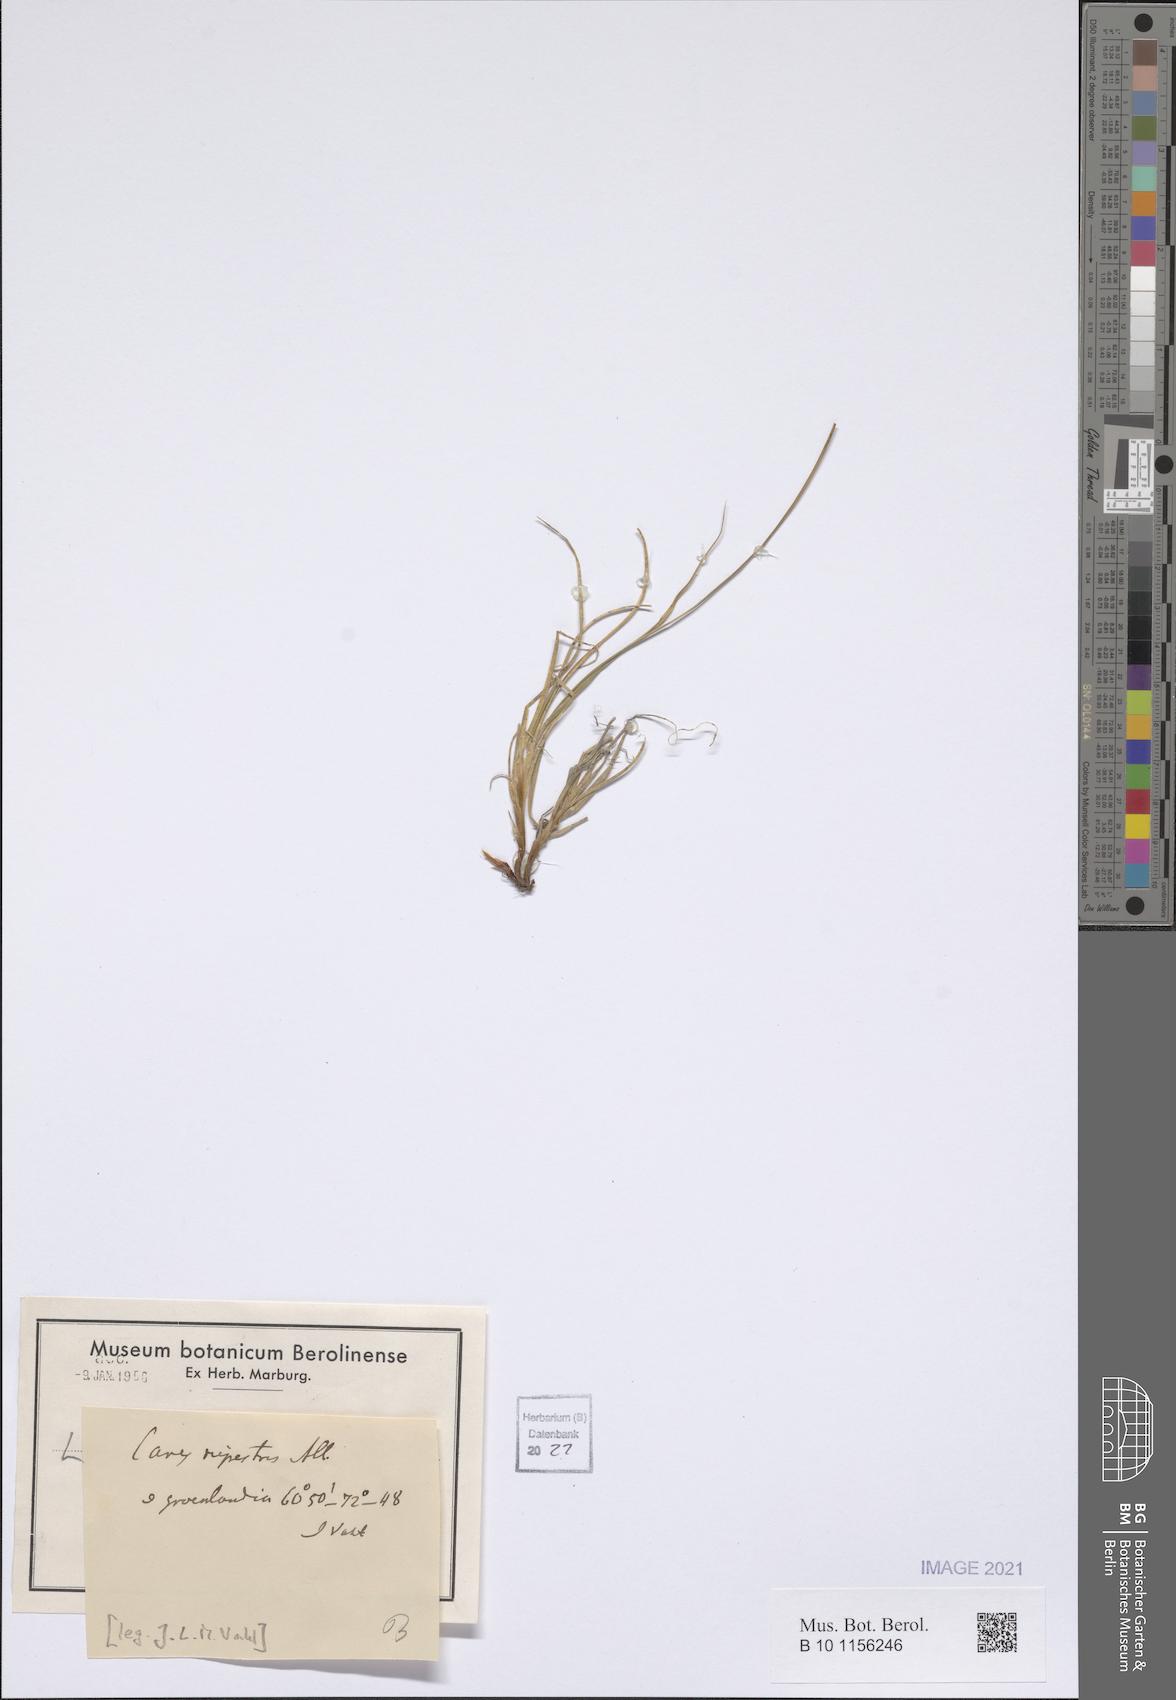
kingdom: Plantae
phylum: Tracheophyta
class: Liliopsida
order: Poales
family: Cyperaceae
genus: Carex
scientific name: Carex rupestris
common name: Rock sedge
